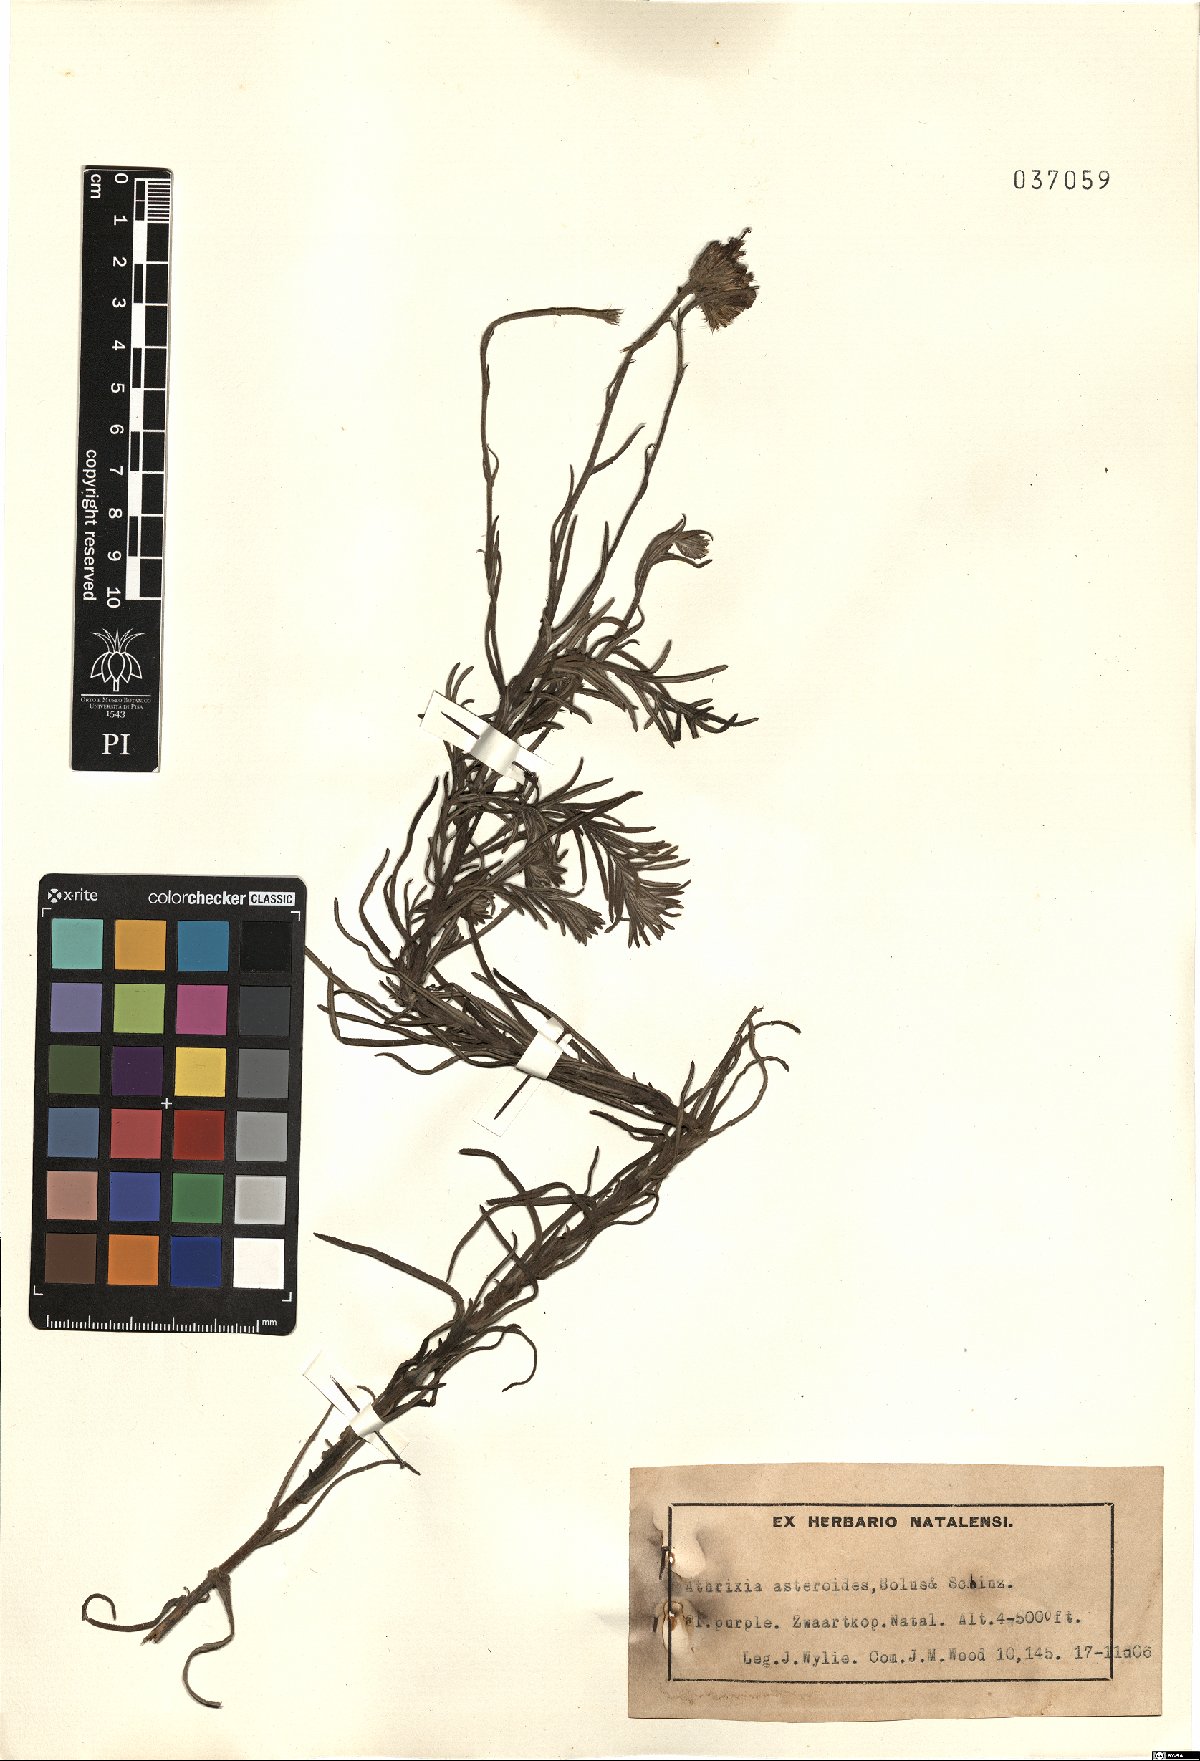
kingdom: Plantae
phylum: Tracheophyta
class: Magnoliopsida
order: Asterales
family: Asteraceae
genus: Lepidostephium
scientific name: Lepidostephium asteroides
